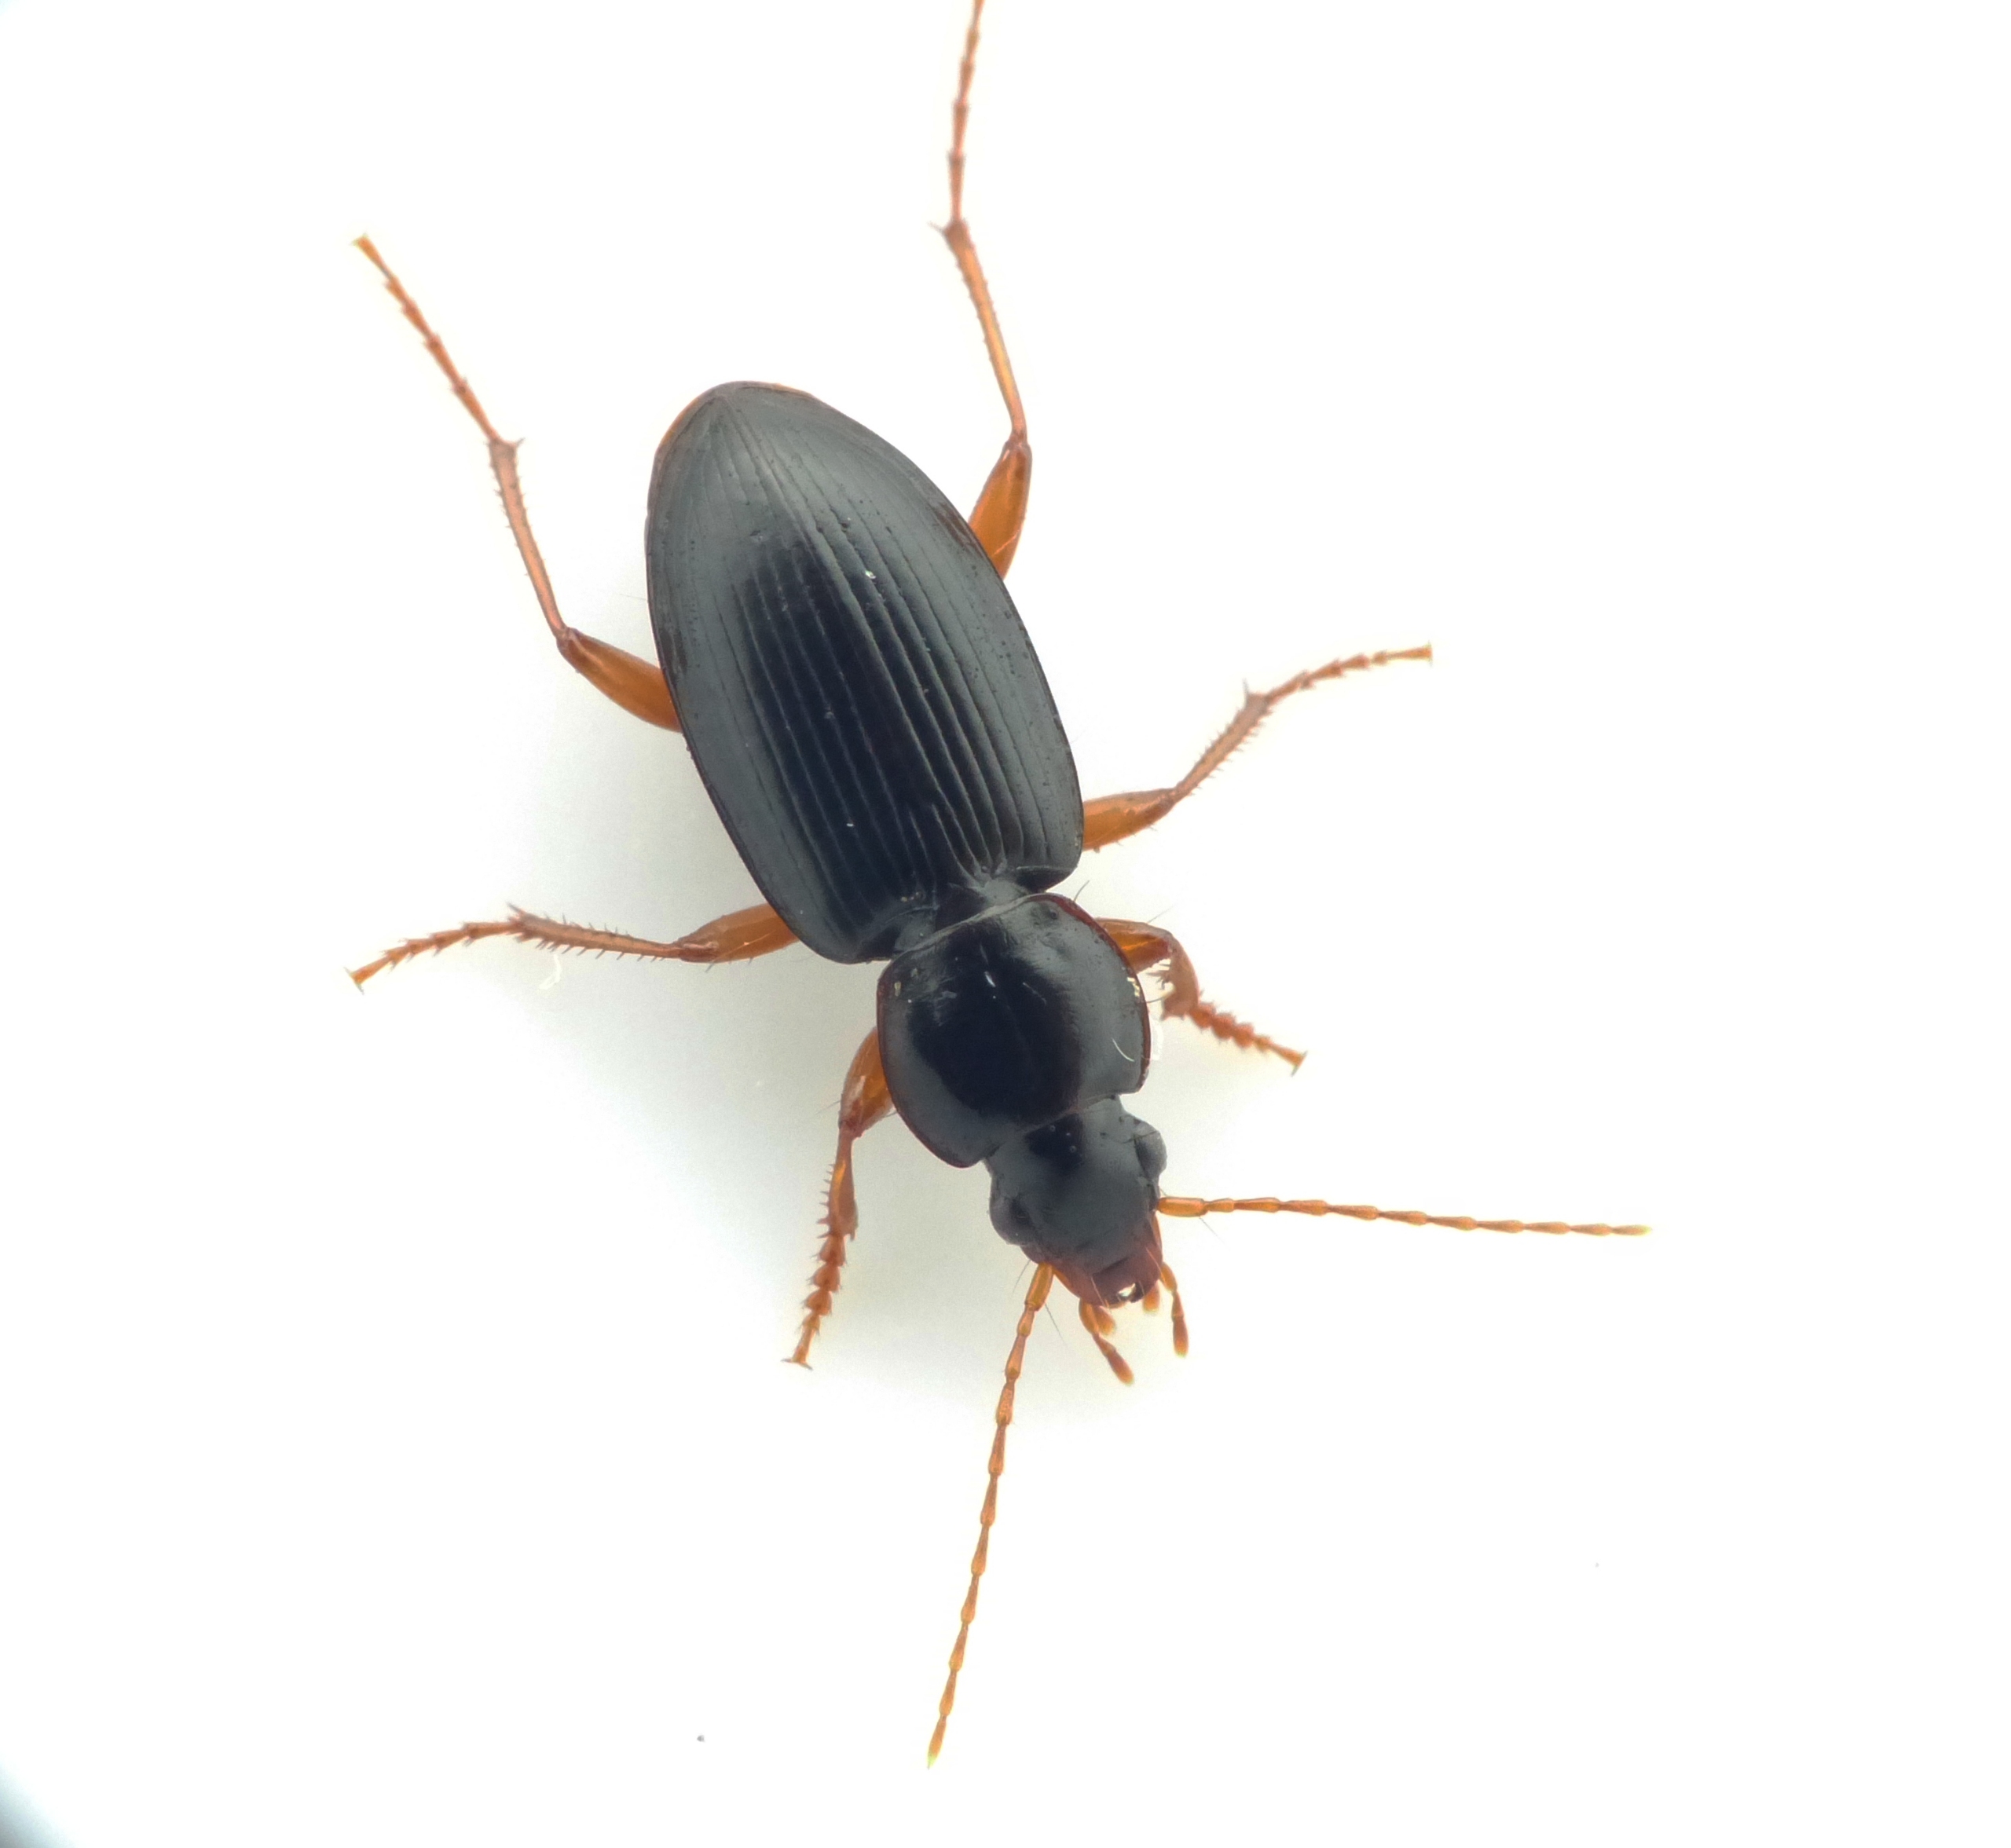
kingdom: Animalia
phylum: Arthropoda
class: Insecta
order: Coleoptera
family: Carabidae
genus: Synuchus
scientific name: Synuchus vivalis
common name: Lille kamløber
